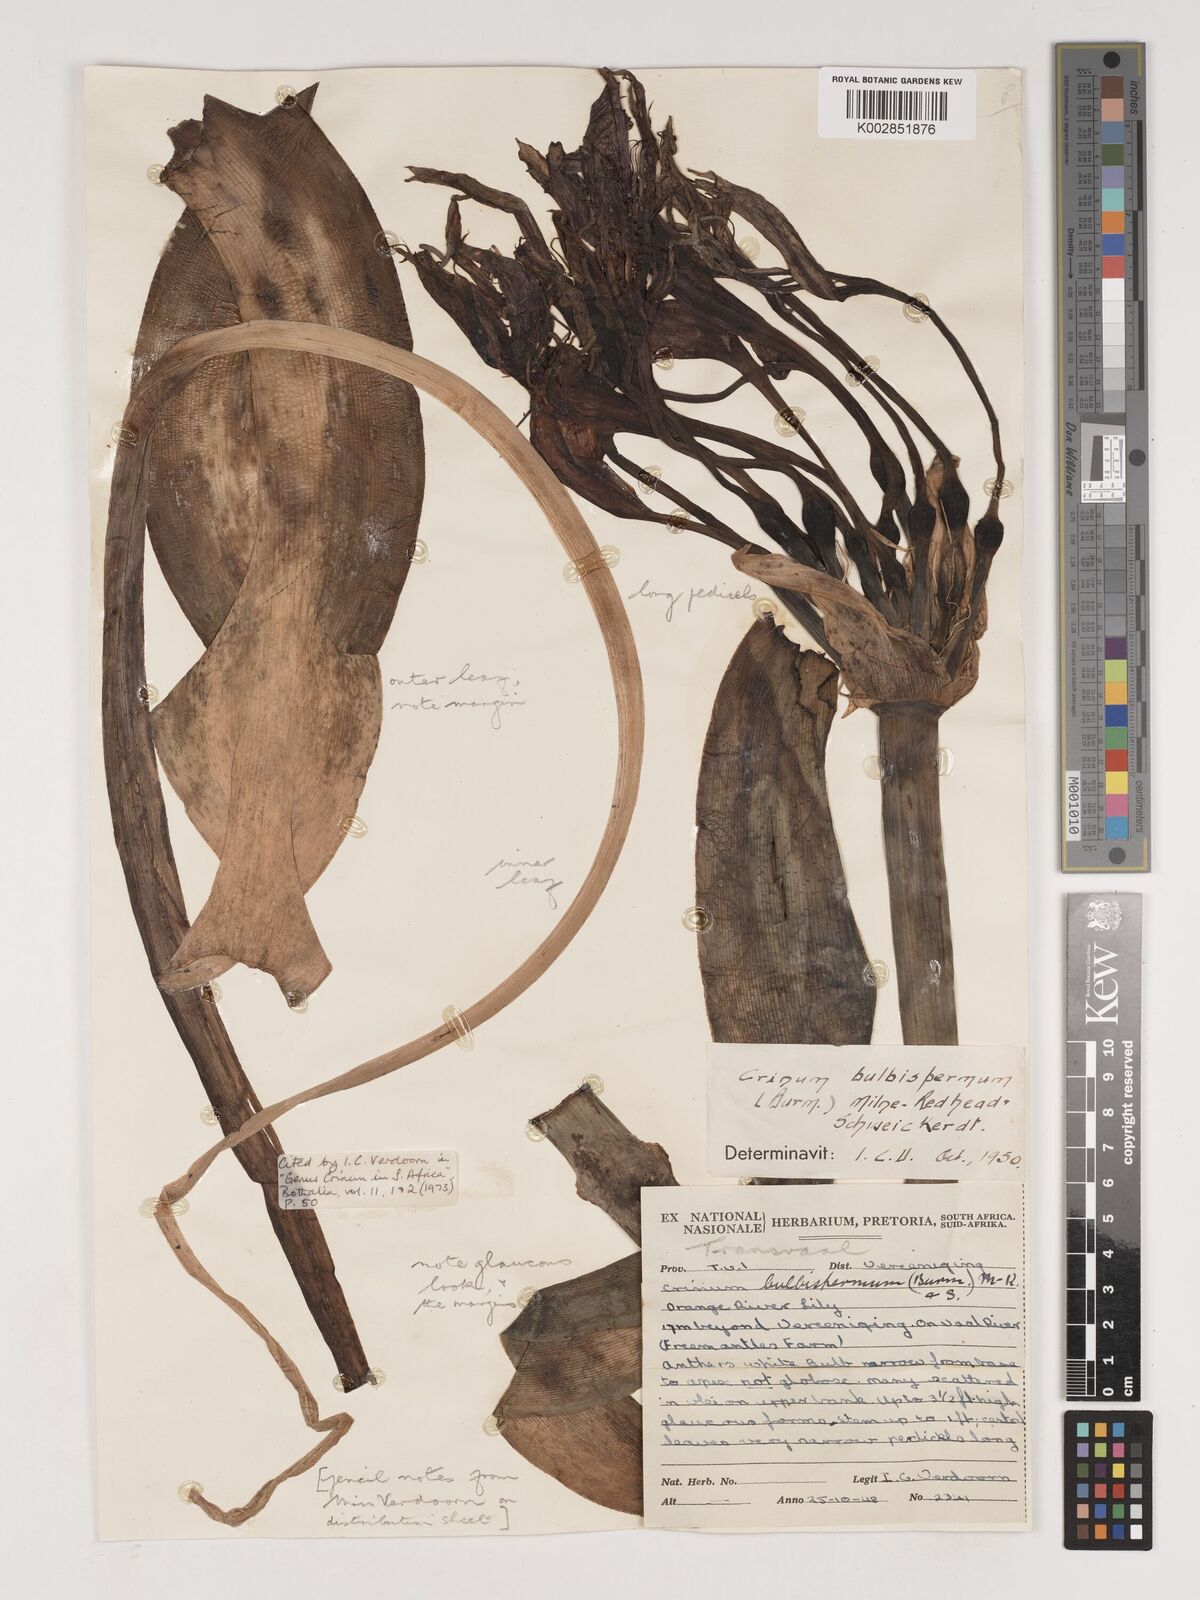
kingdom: Plantae
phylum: Tracheophyta
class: Liliopsida
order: Asparagales
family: Amaryllidaceae
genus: Crinum
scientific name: Crinum bulbispermum
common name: Hardy swamplily
